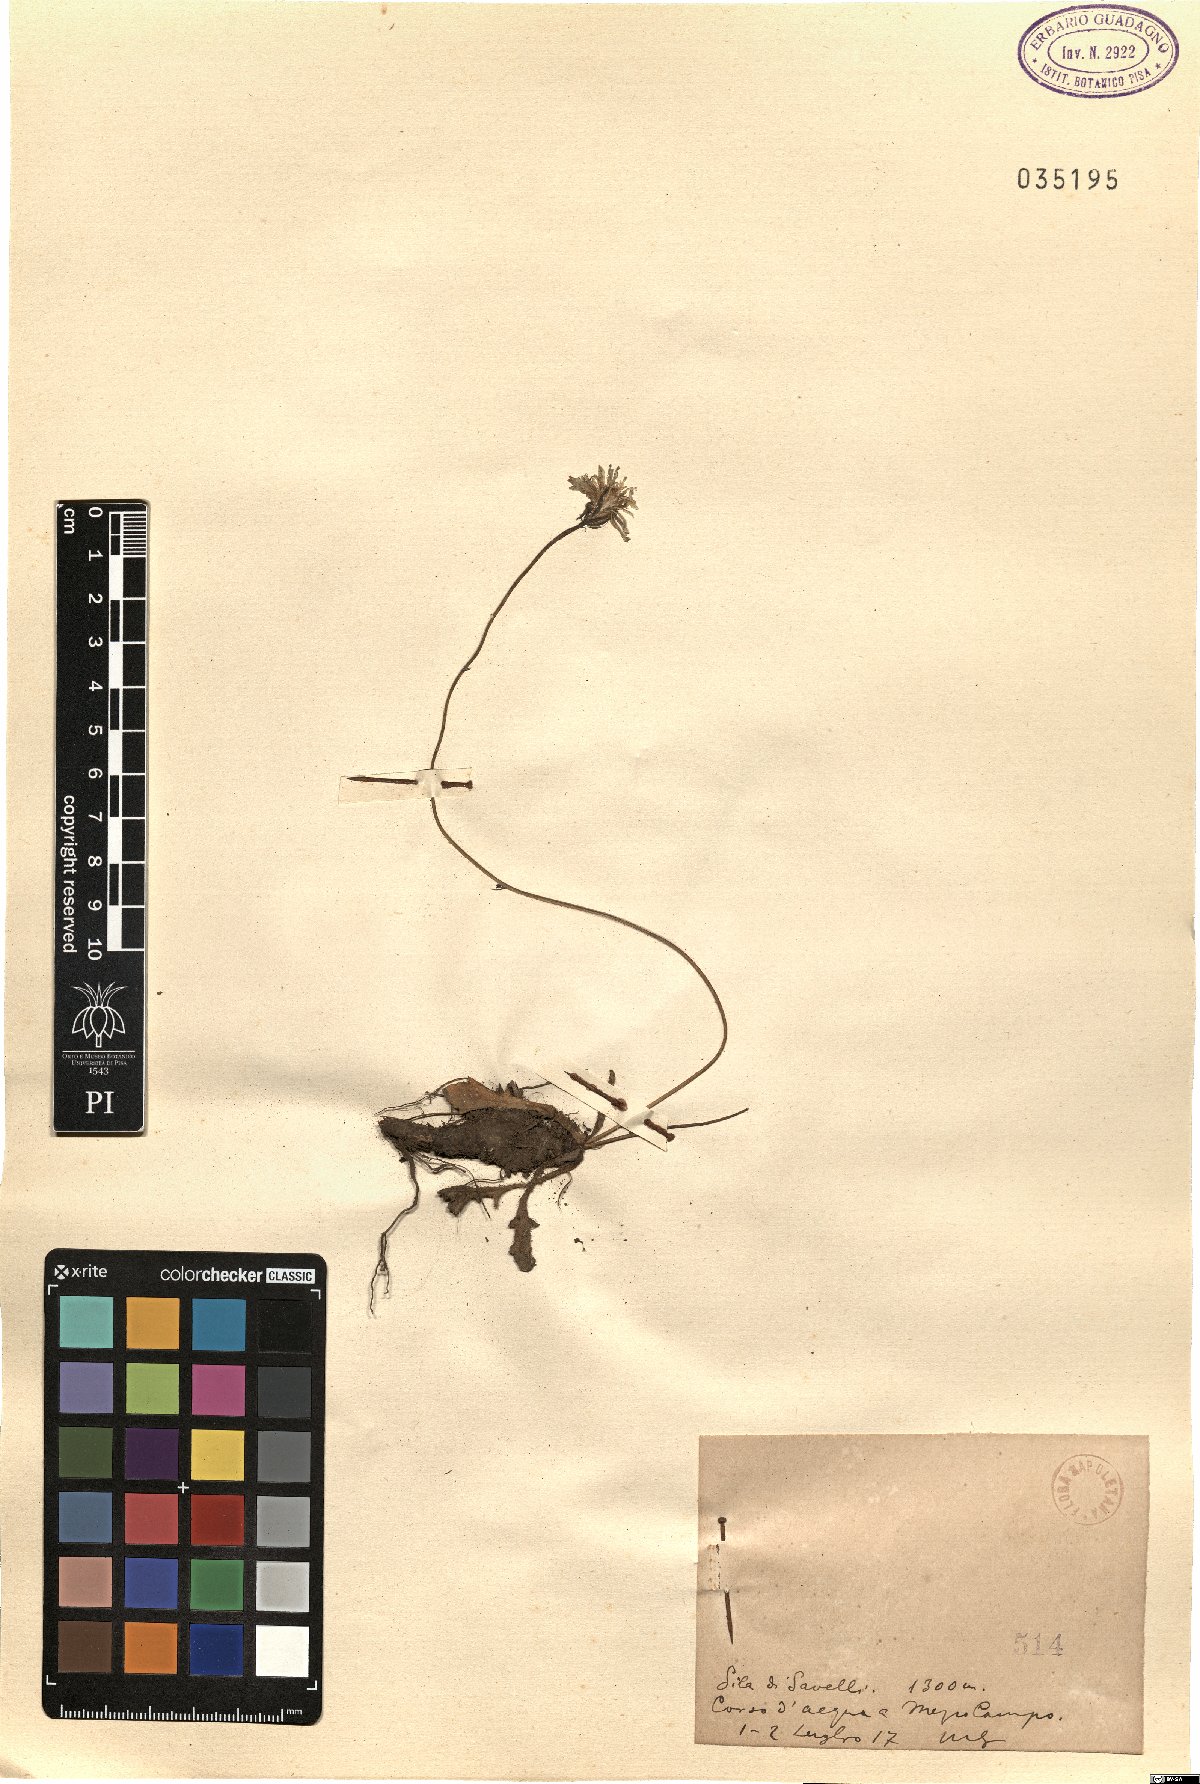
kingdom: Plantae
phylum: Tracheophyta
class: Magnoliopsida
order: Asterales
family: Asteraceae
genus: Thrincia
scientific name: Thrincia
